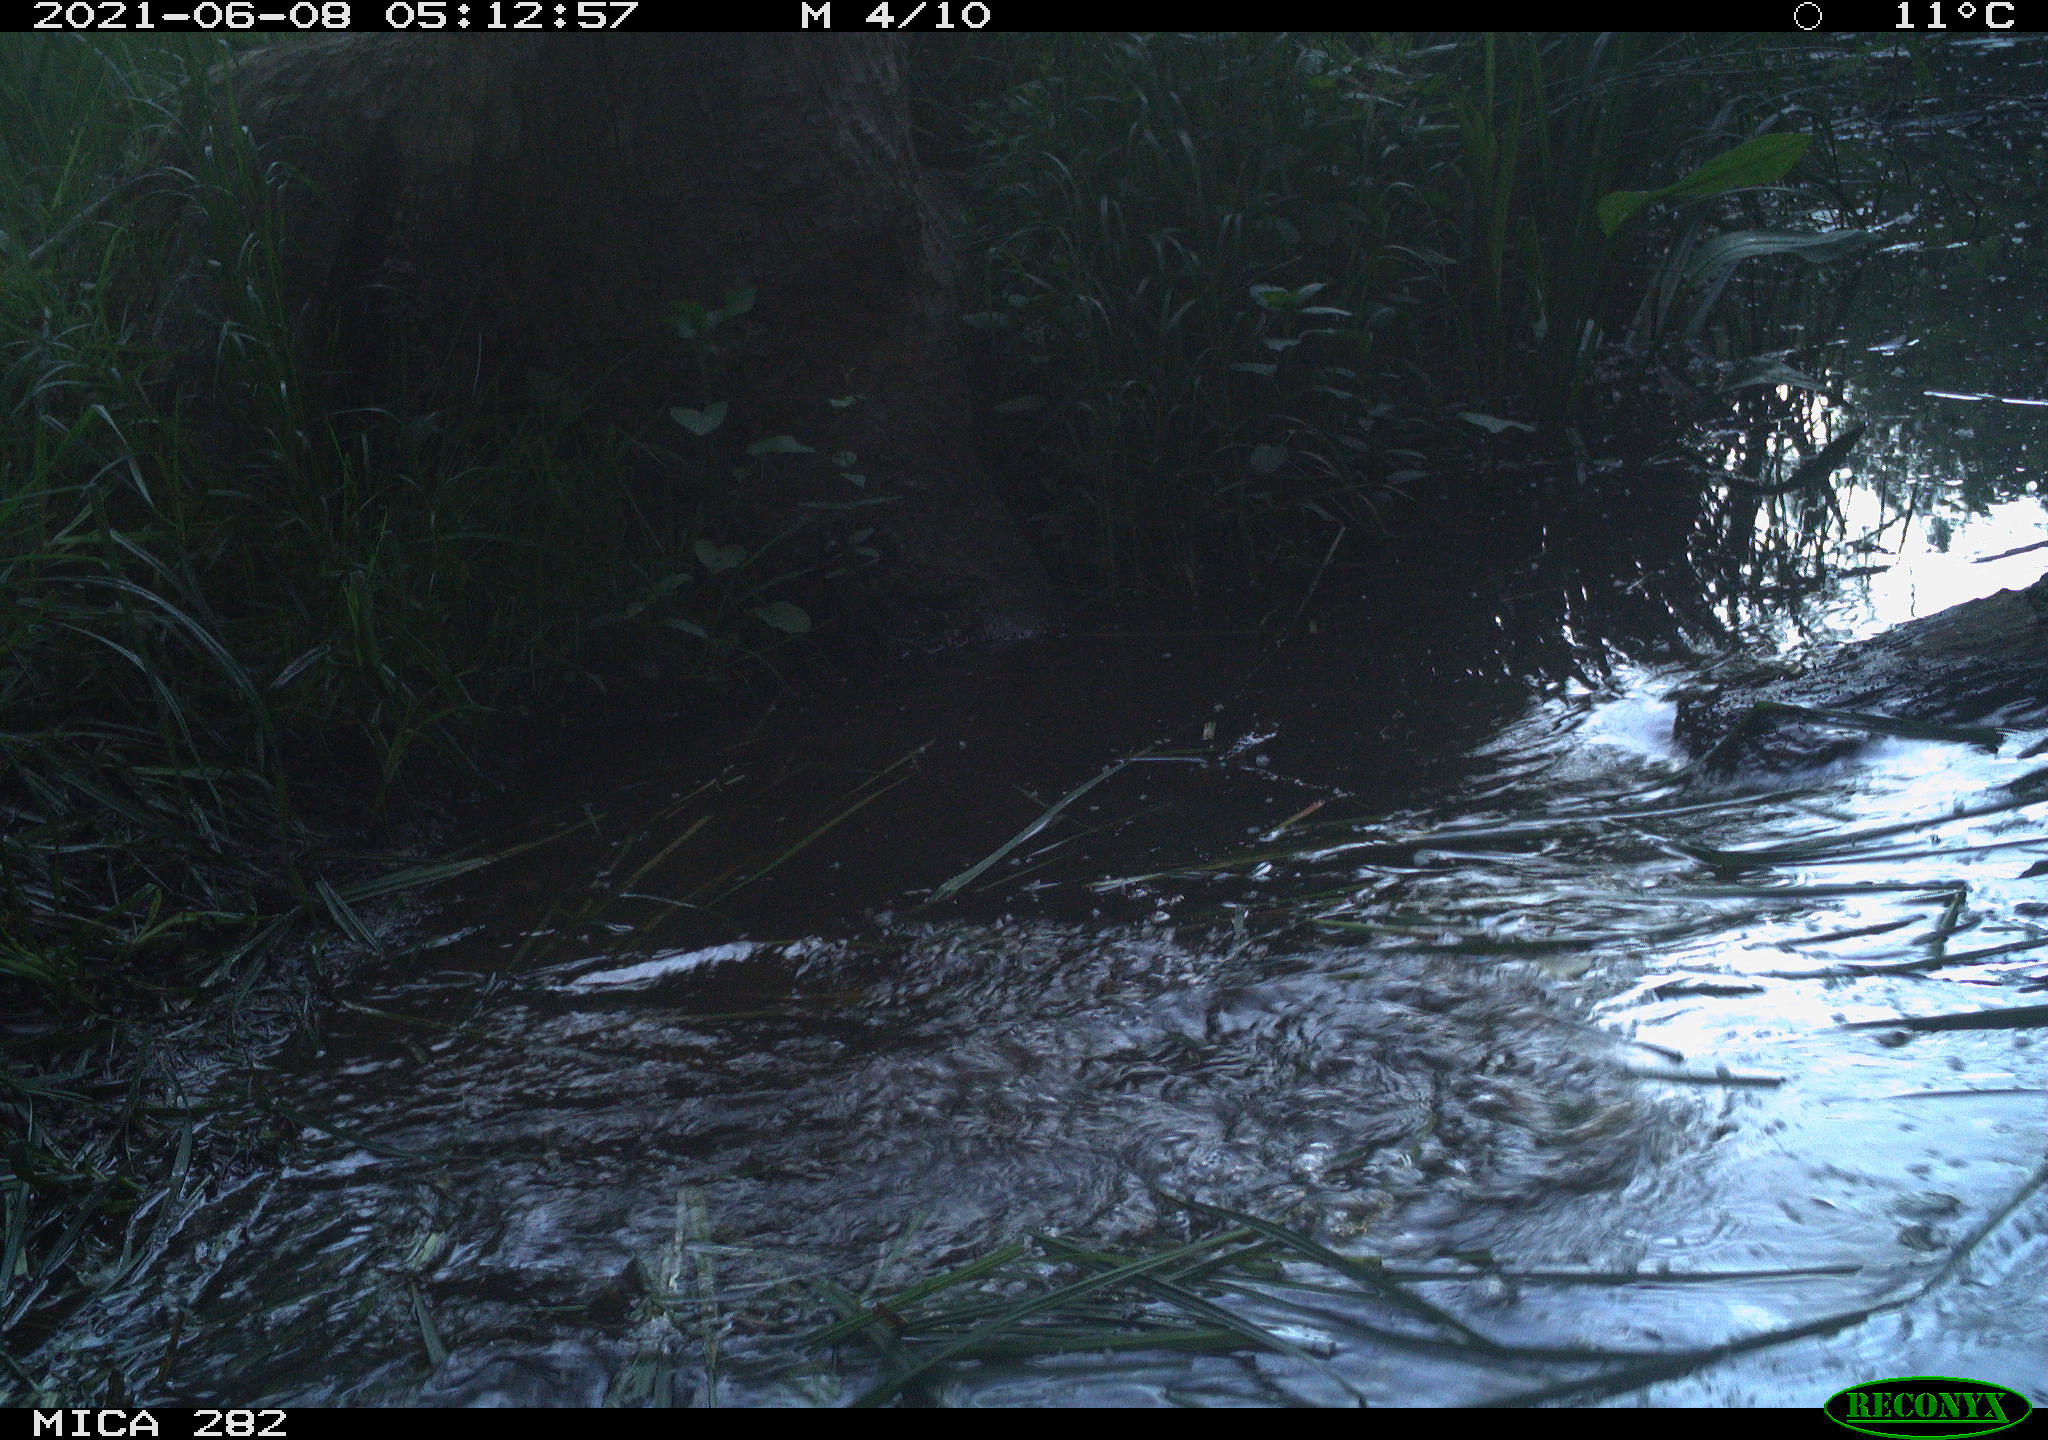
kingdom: Animalia
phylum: Chordata
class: Mammalia
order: Rodentia
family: Castoridae
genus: Castor
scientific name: Castor fiber
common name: Eurasian beaver
